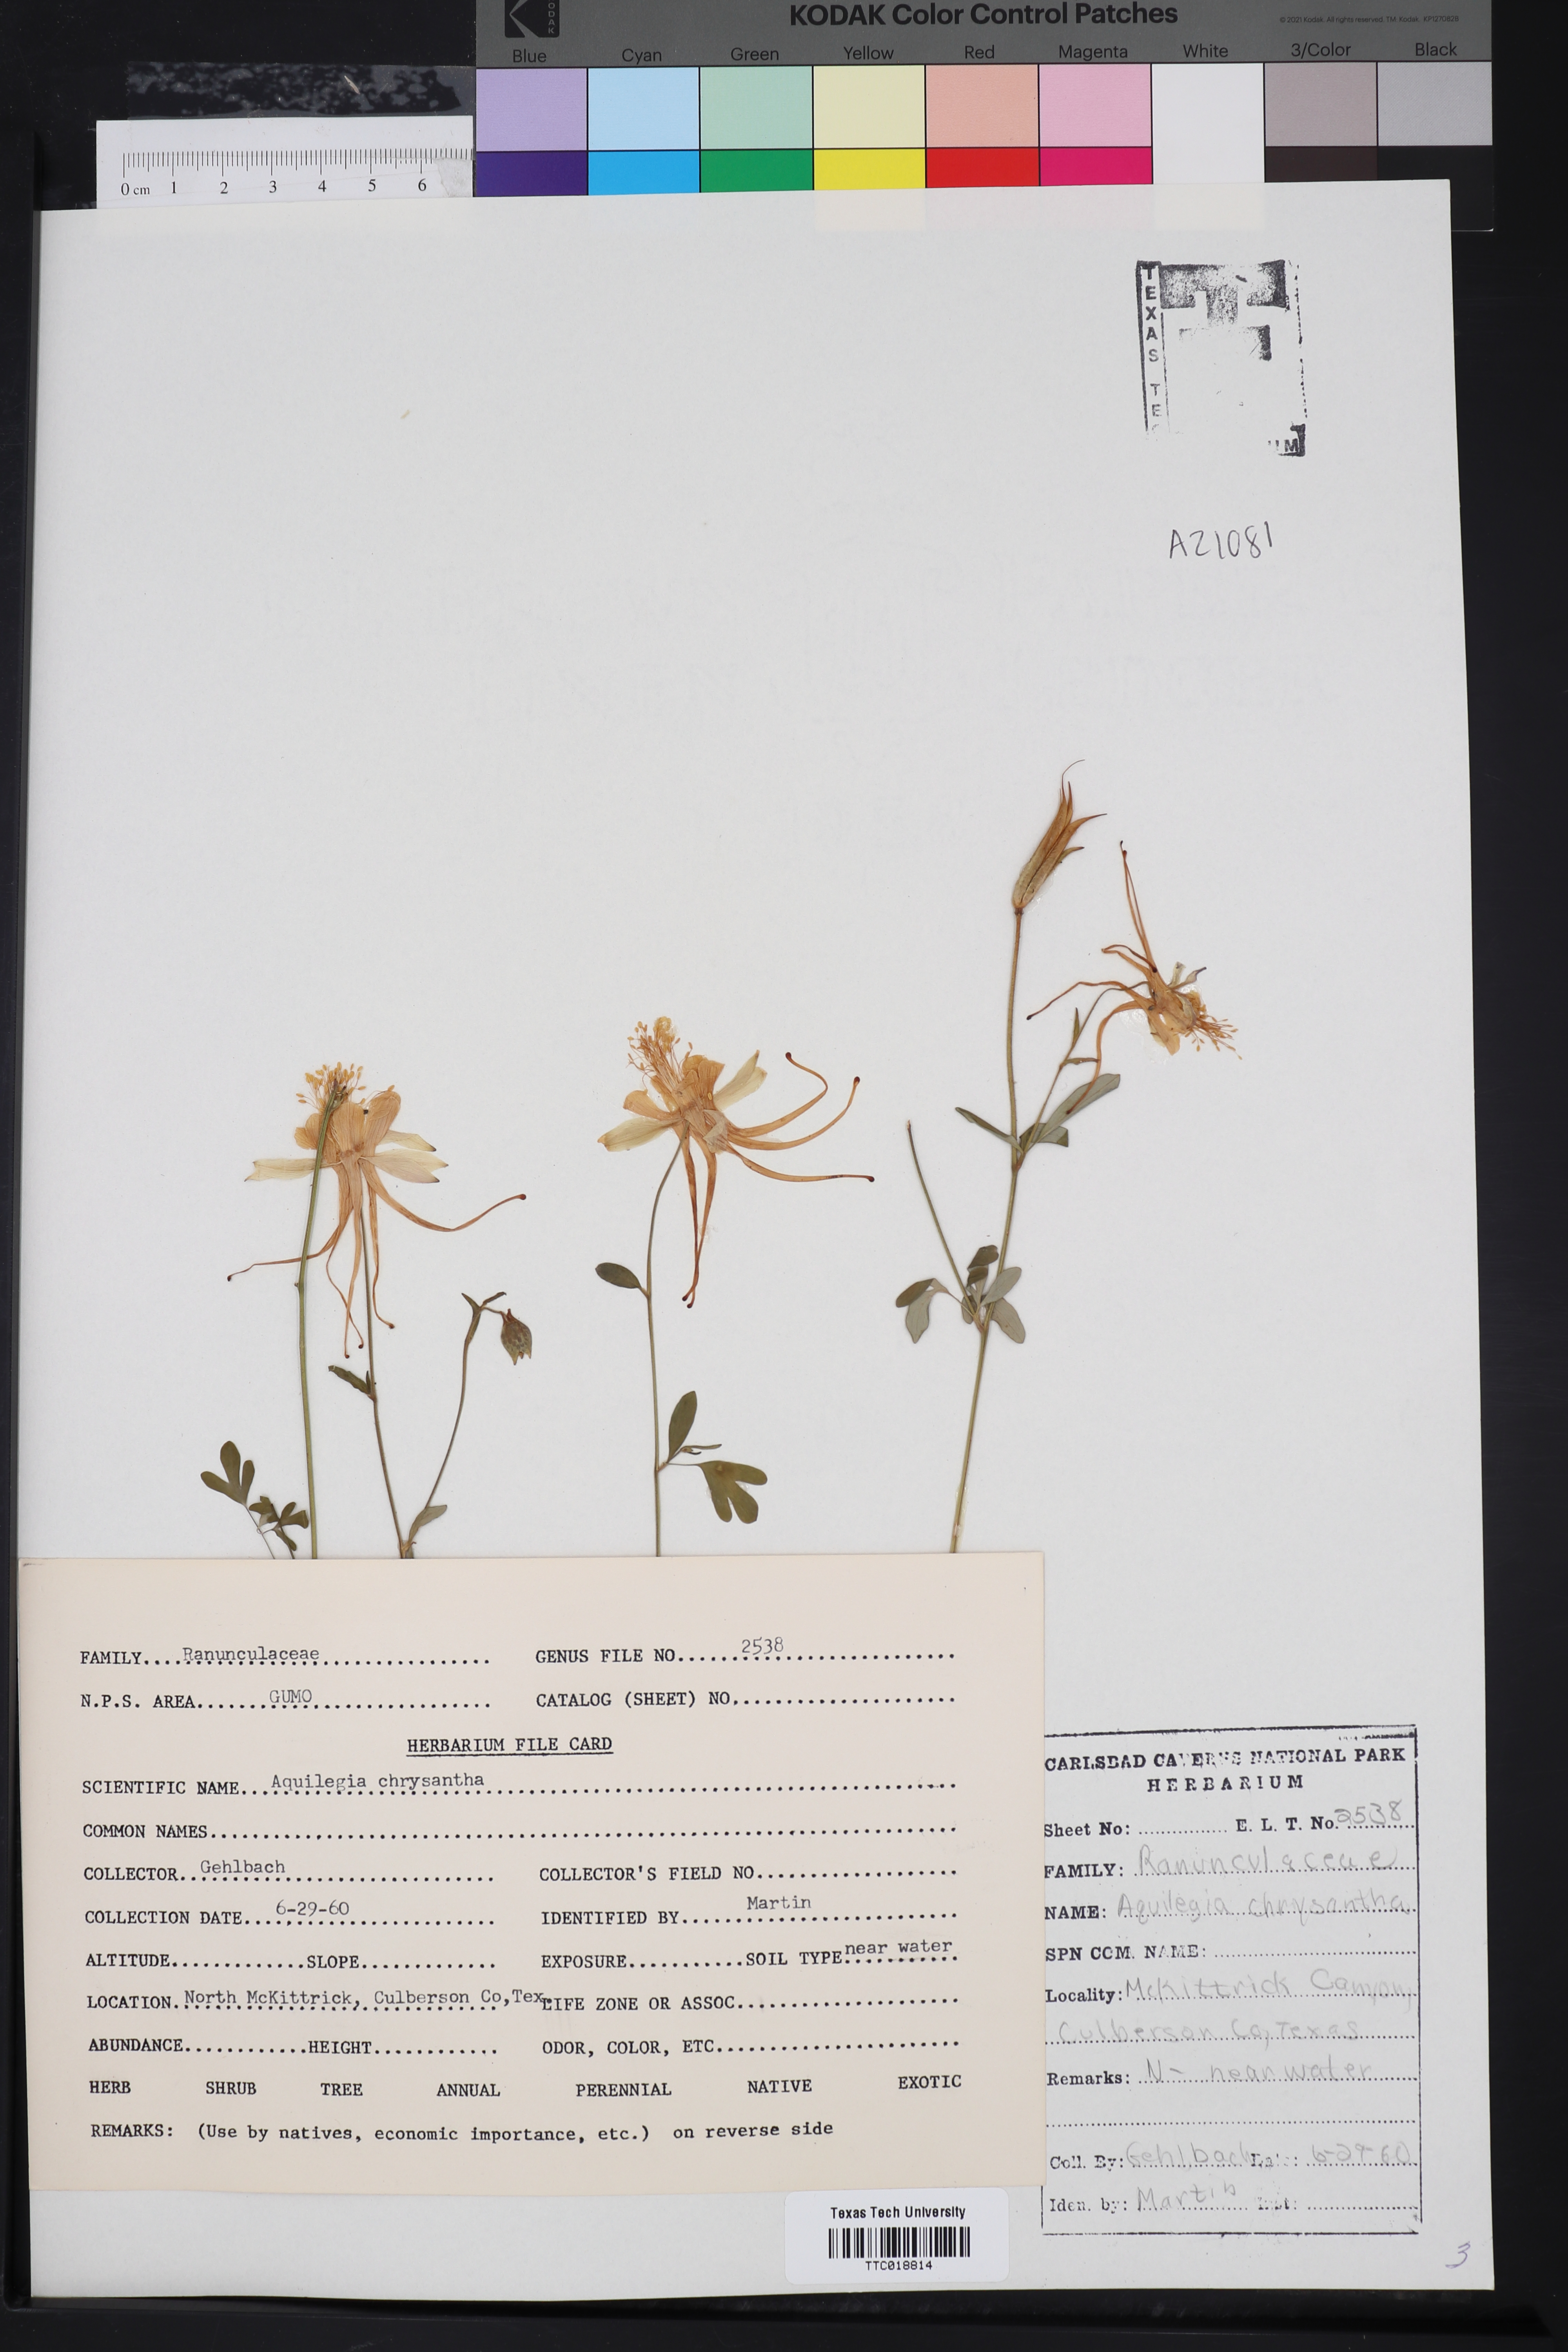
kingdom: Plantae
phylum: Tracheophyta
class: Magnoliopsida
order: Ranunculales
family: Ranunculaceae
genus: Aquilegia
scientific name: Aquilegia chrysantha
